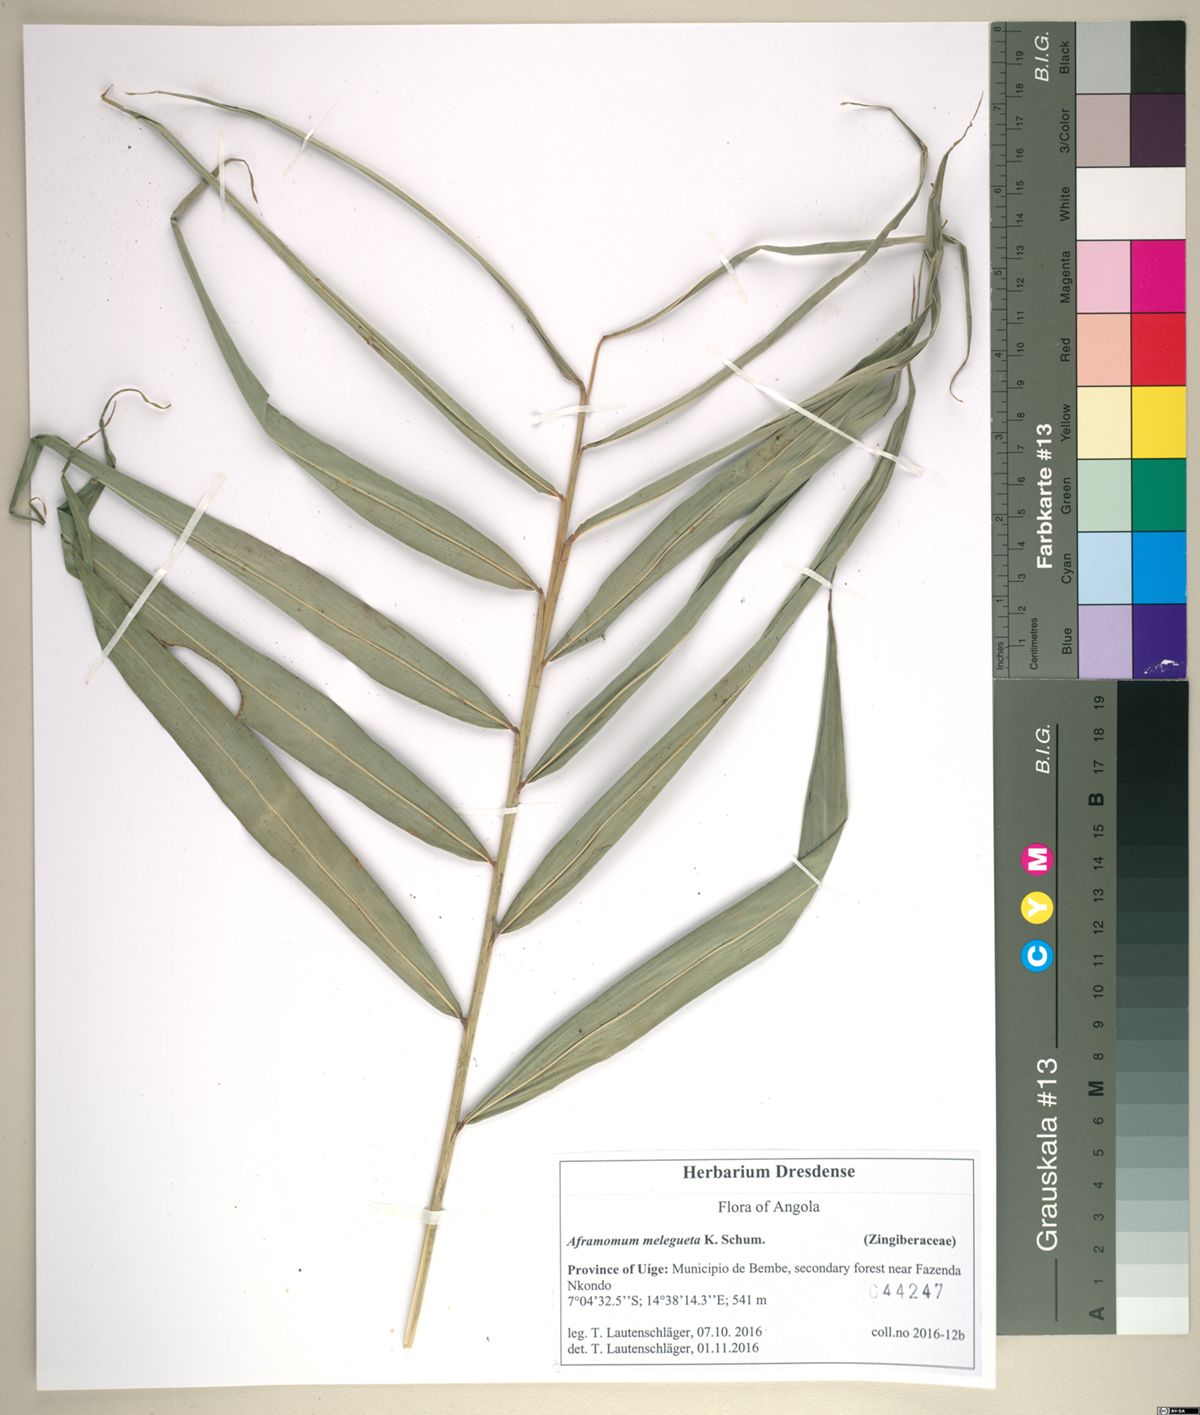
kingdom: Plantae
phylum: Tracheophyta
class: Liliopsida
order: Zingiberales
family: Zingiberaceae
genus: Aframomum
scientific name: Aframomum melegueta
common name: Grains of paradise
